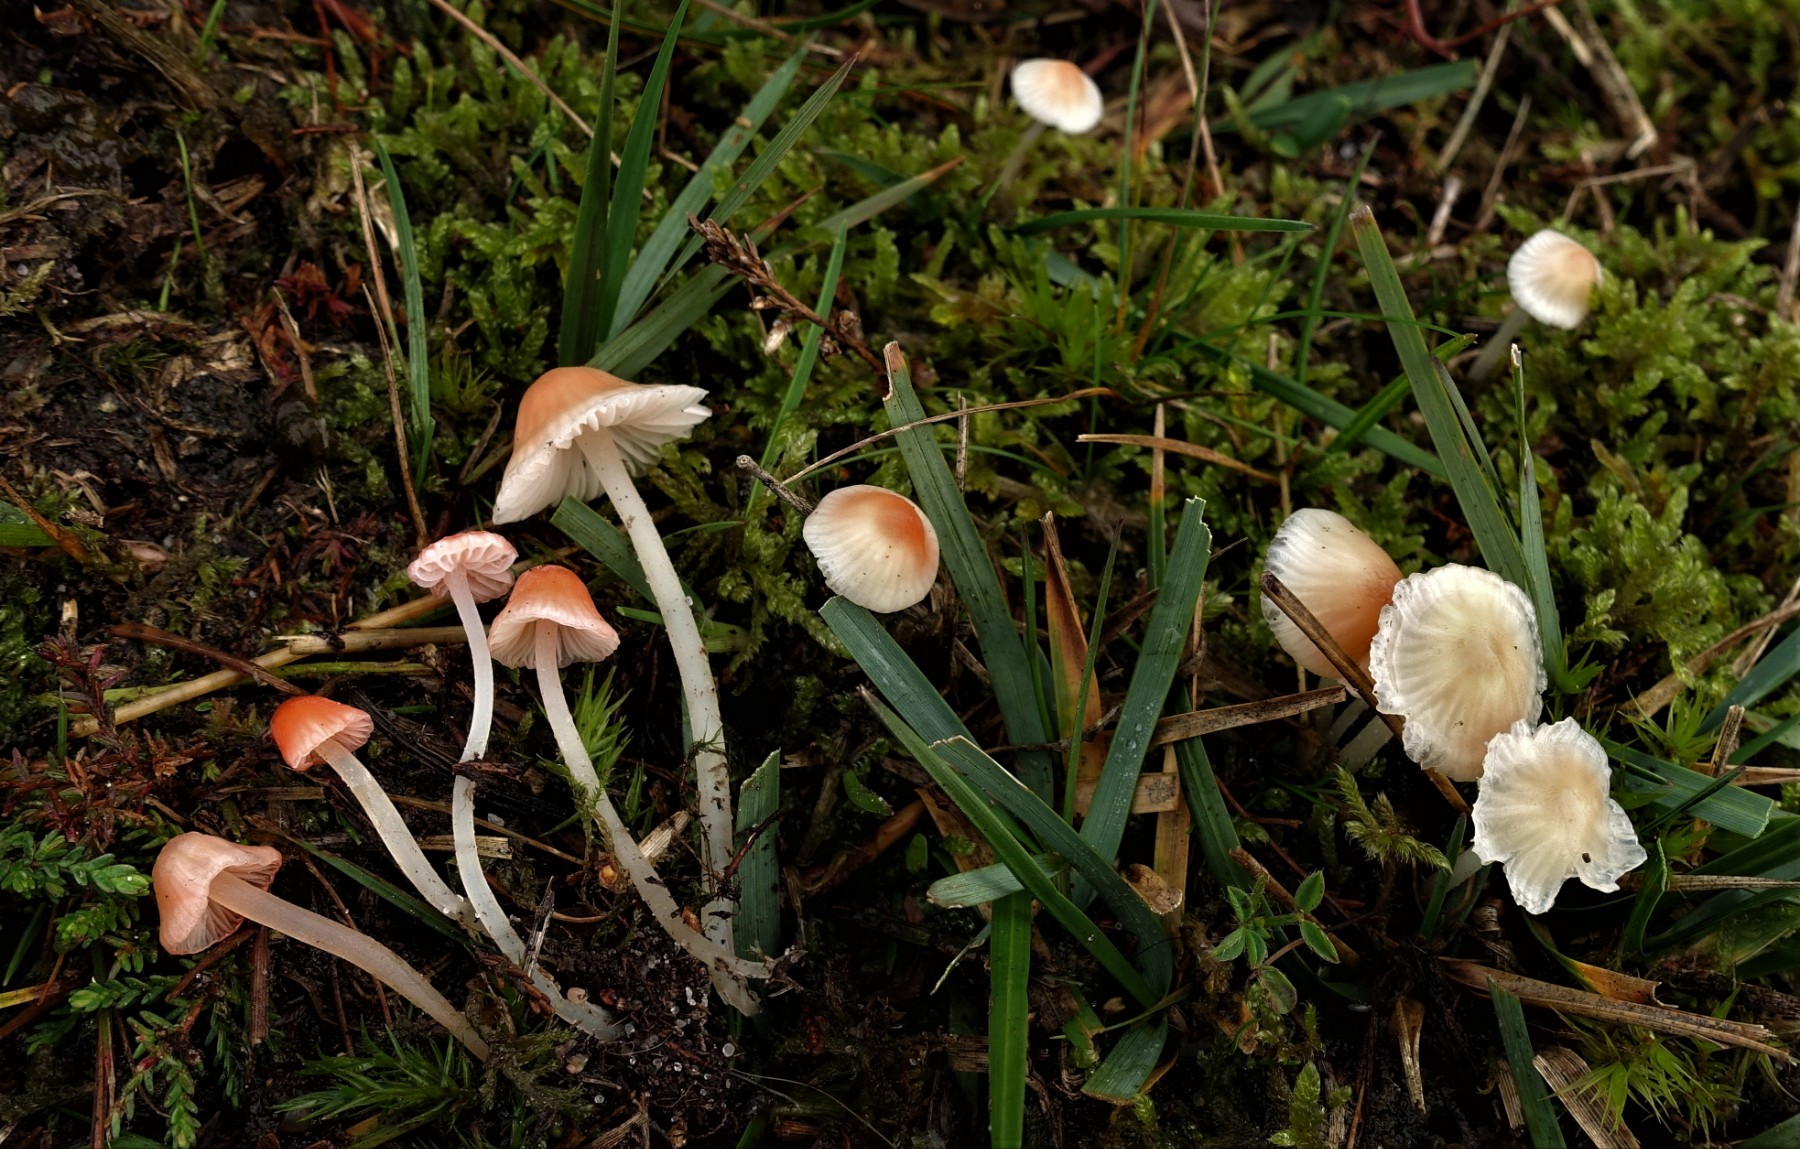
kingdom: Fungi
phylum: Basidiomycota
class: Agaricomycetes
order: Agaricales
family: Mycenaceae
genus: Atheniella
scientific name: Atheniella adonis
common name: rønnerød huesvamp
